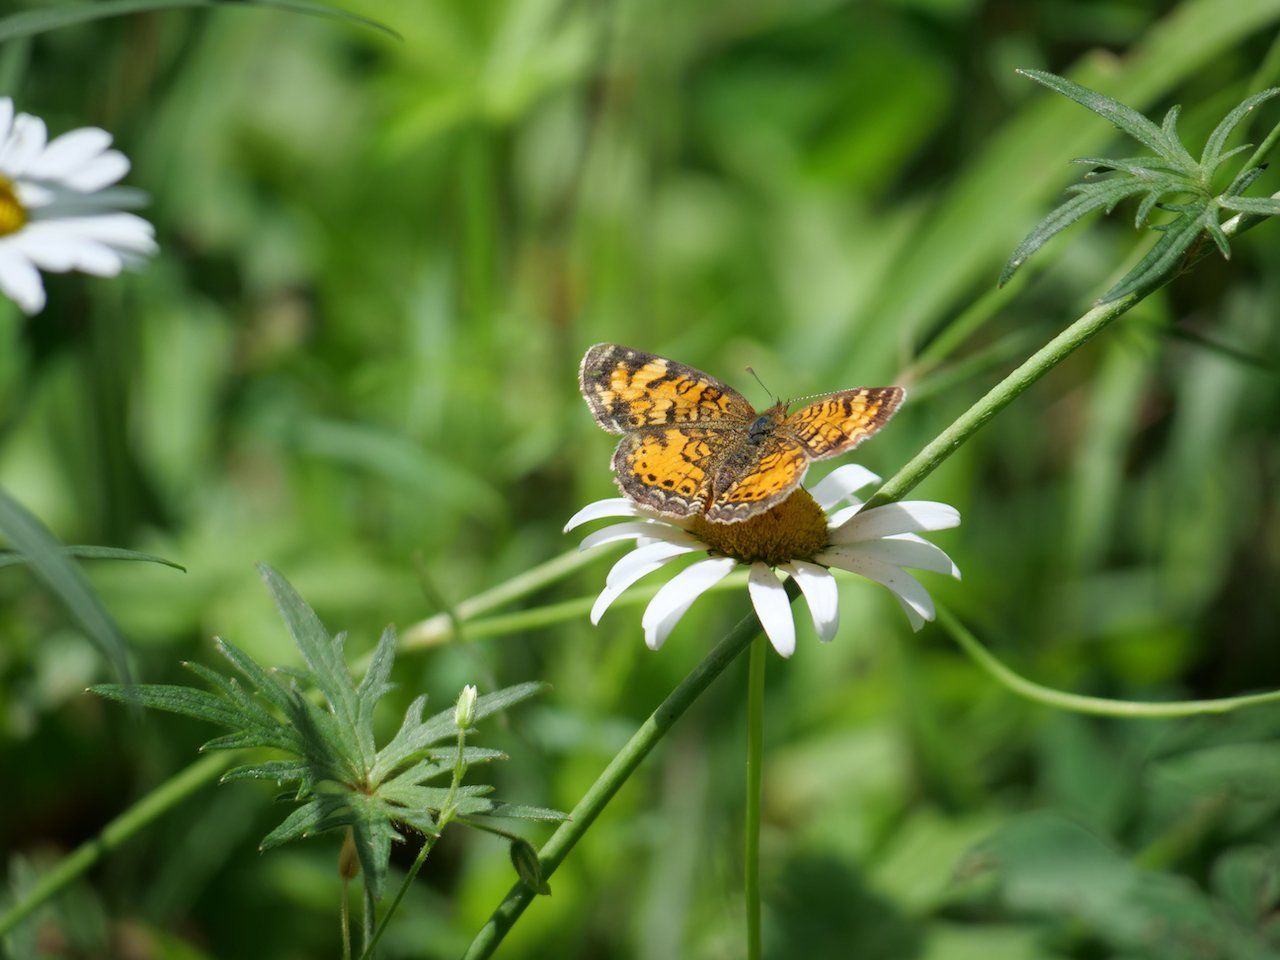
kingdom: Animalia
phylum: Arthropoda
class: Insecta
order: Lepidoptera
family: Nymphalidae
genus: Phyciodes
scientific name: Phyciodes tharos
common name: Northern Crescent
